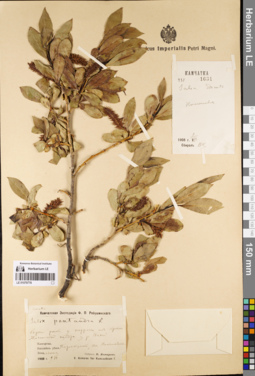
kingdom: Plantae
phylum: Tracheophyta
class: Magnoliopsida
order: Malpighiales
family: Salicaceae
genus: Salix
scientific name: Salix pseudopentandra
